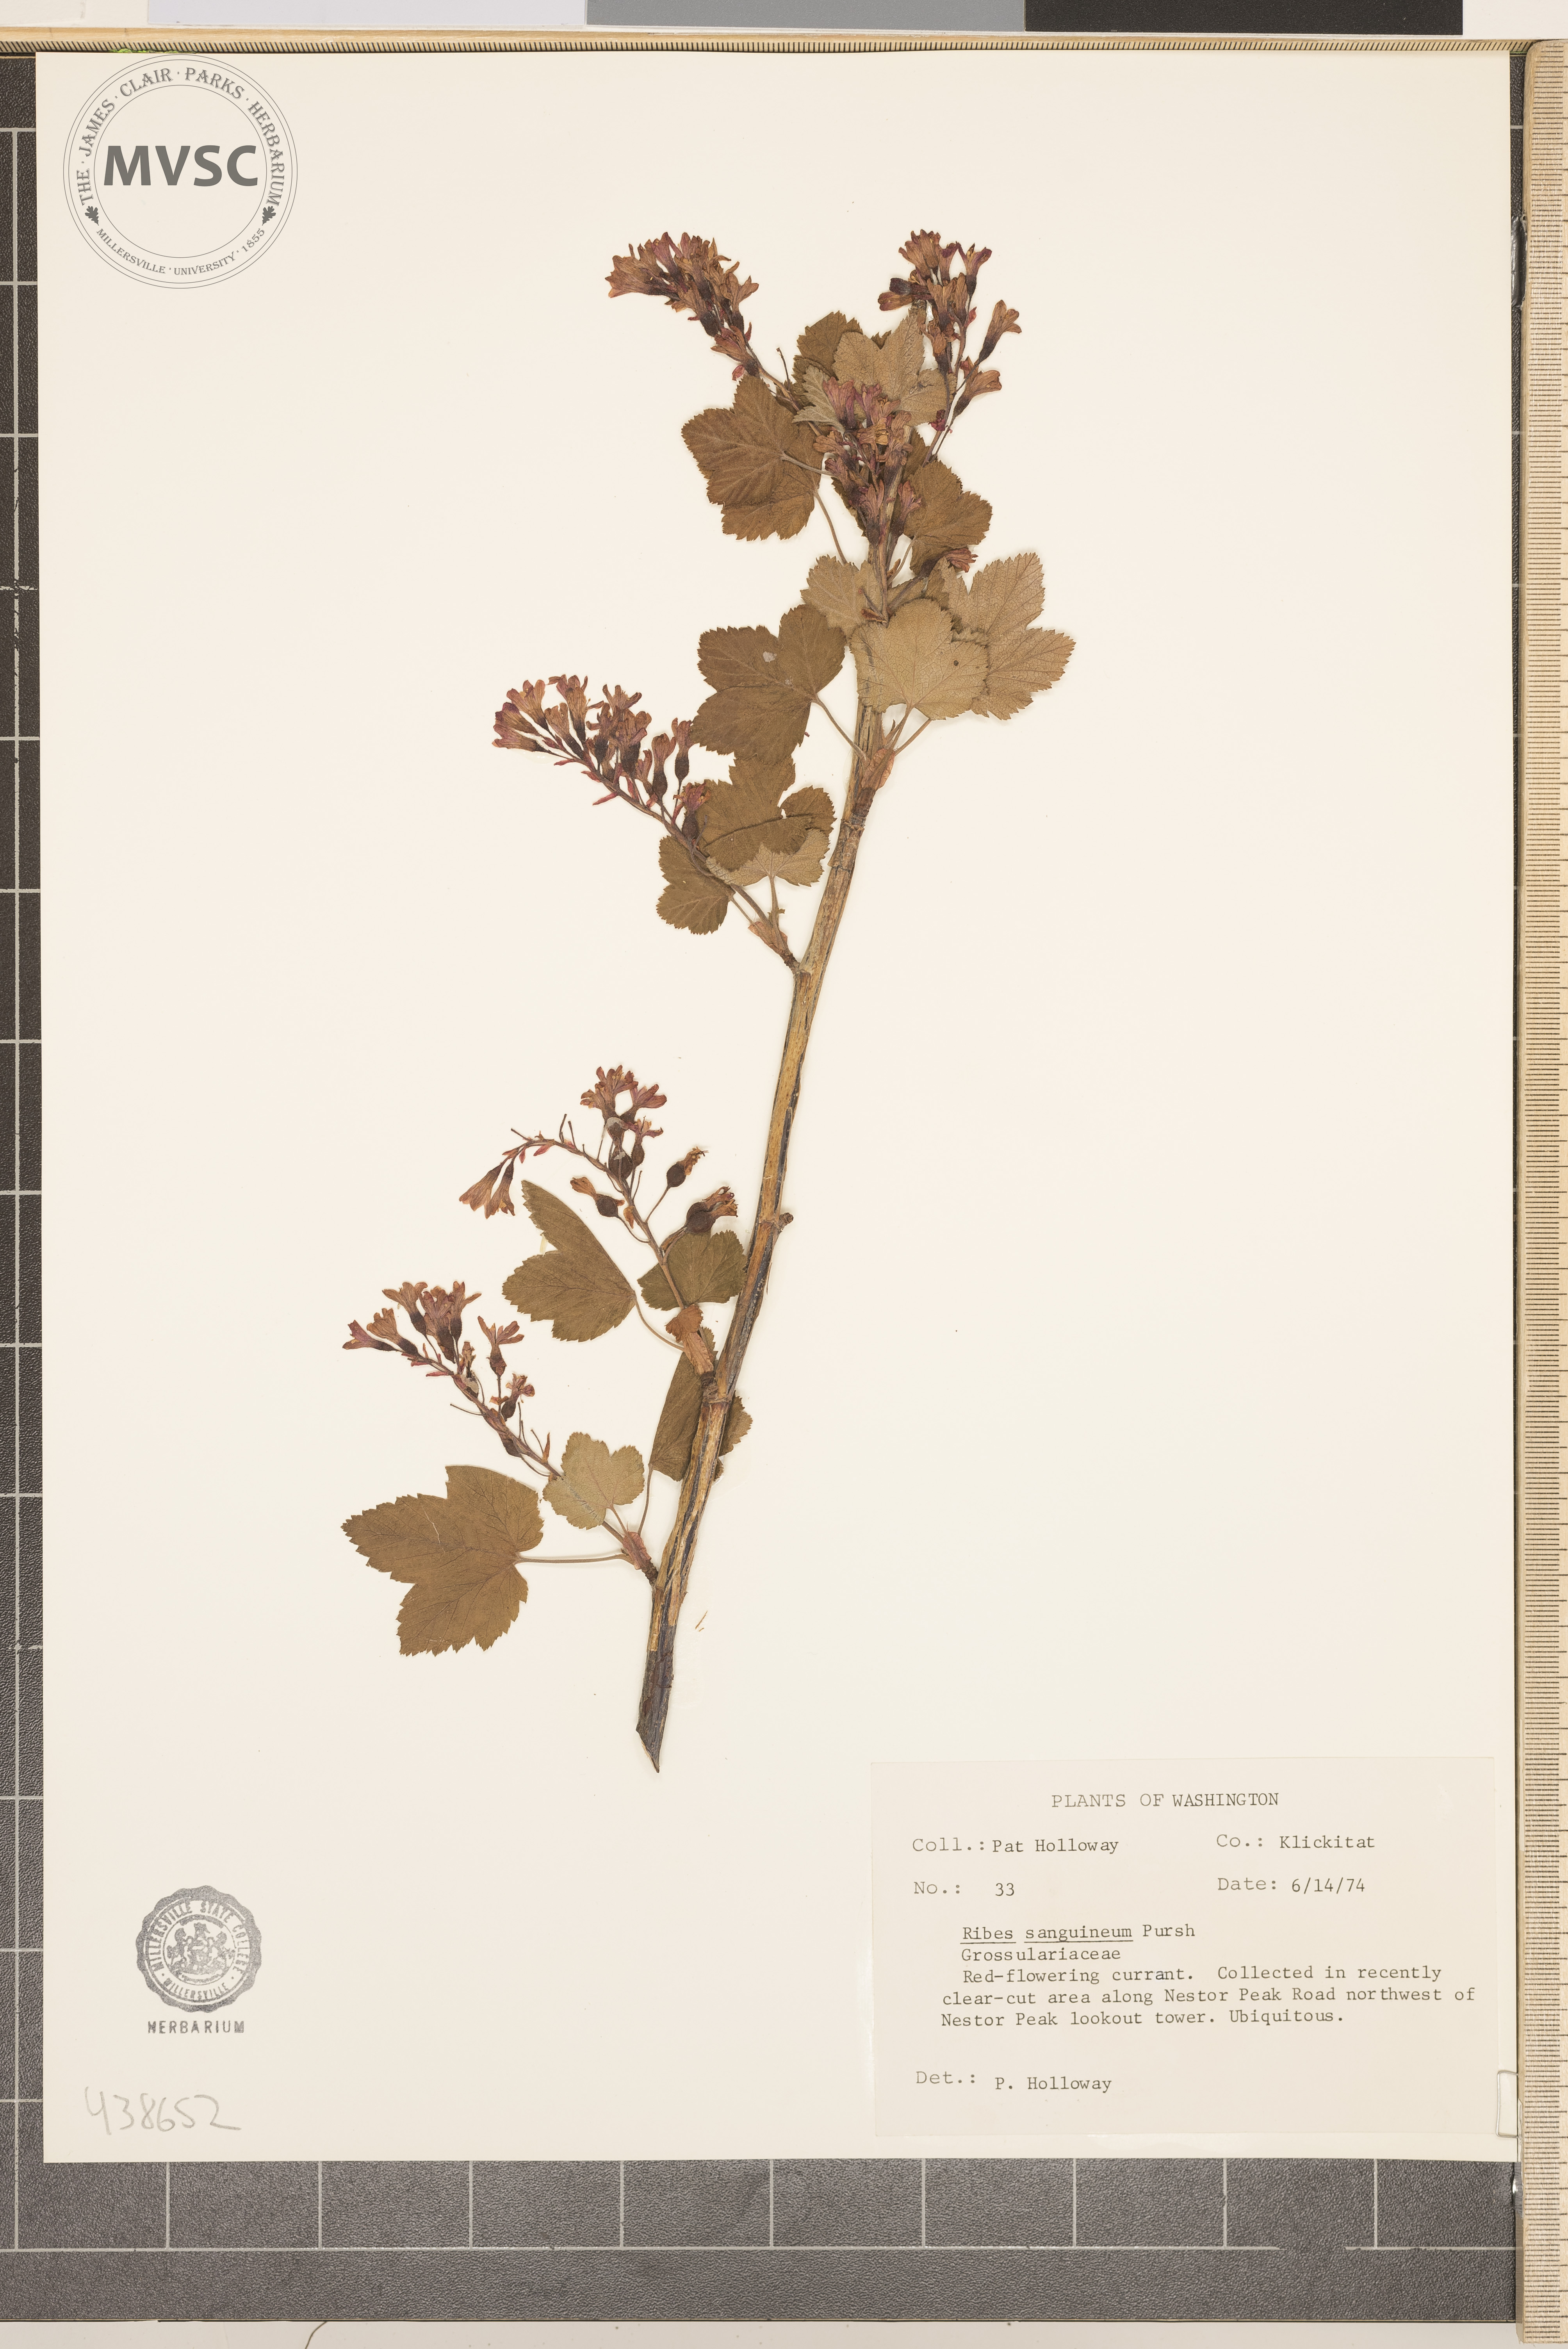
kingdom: Plantae
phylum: Tracheophyta
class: Magnoliopsida
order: Saxifragales
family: Grossulariaceae
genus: Ribes
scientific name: Ribes sanguineum
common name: Flowering currant
